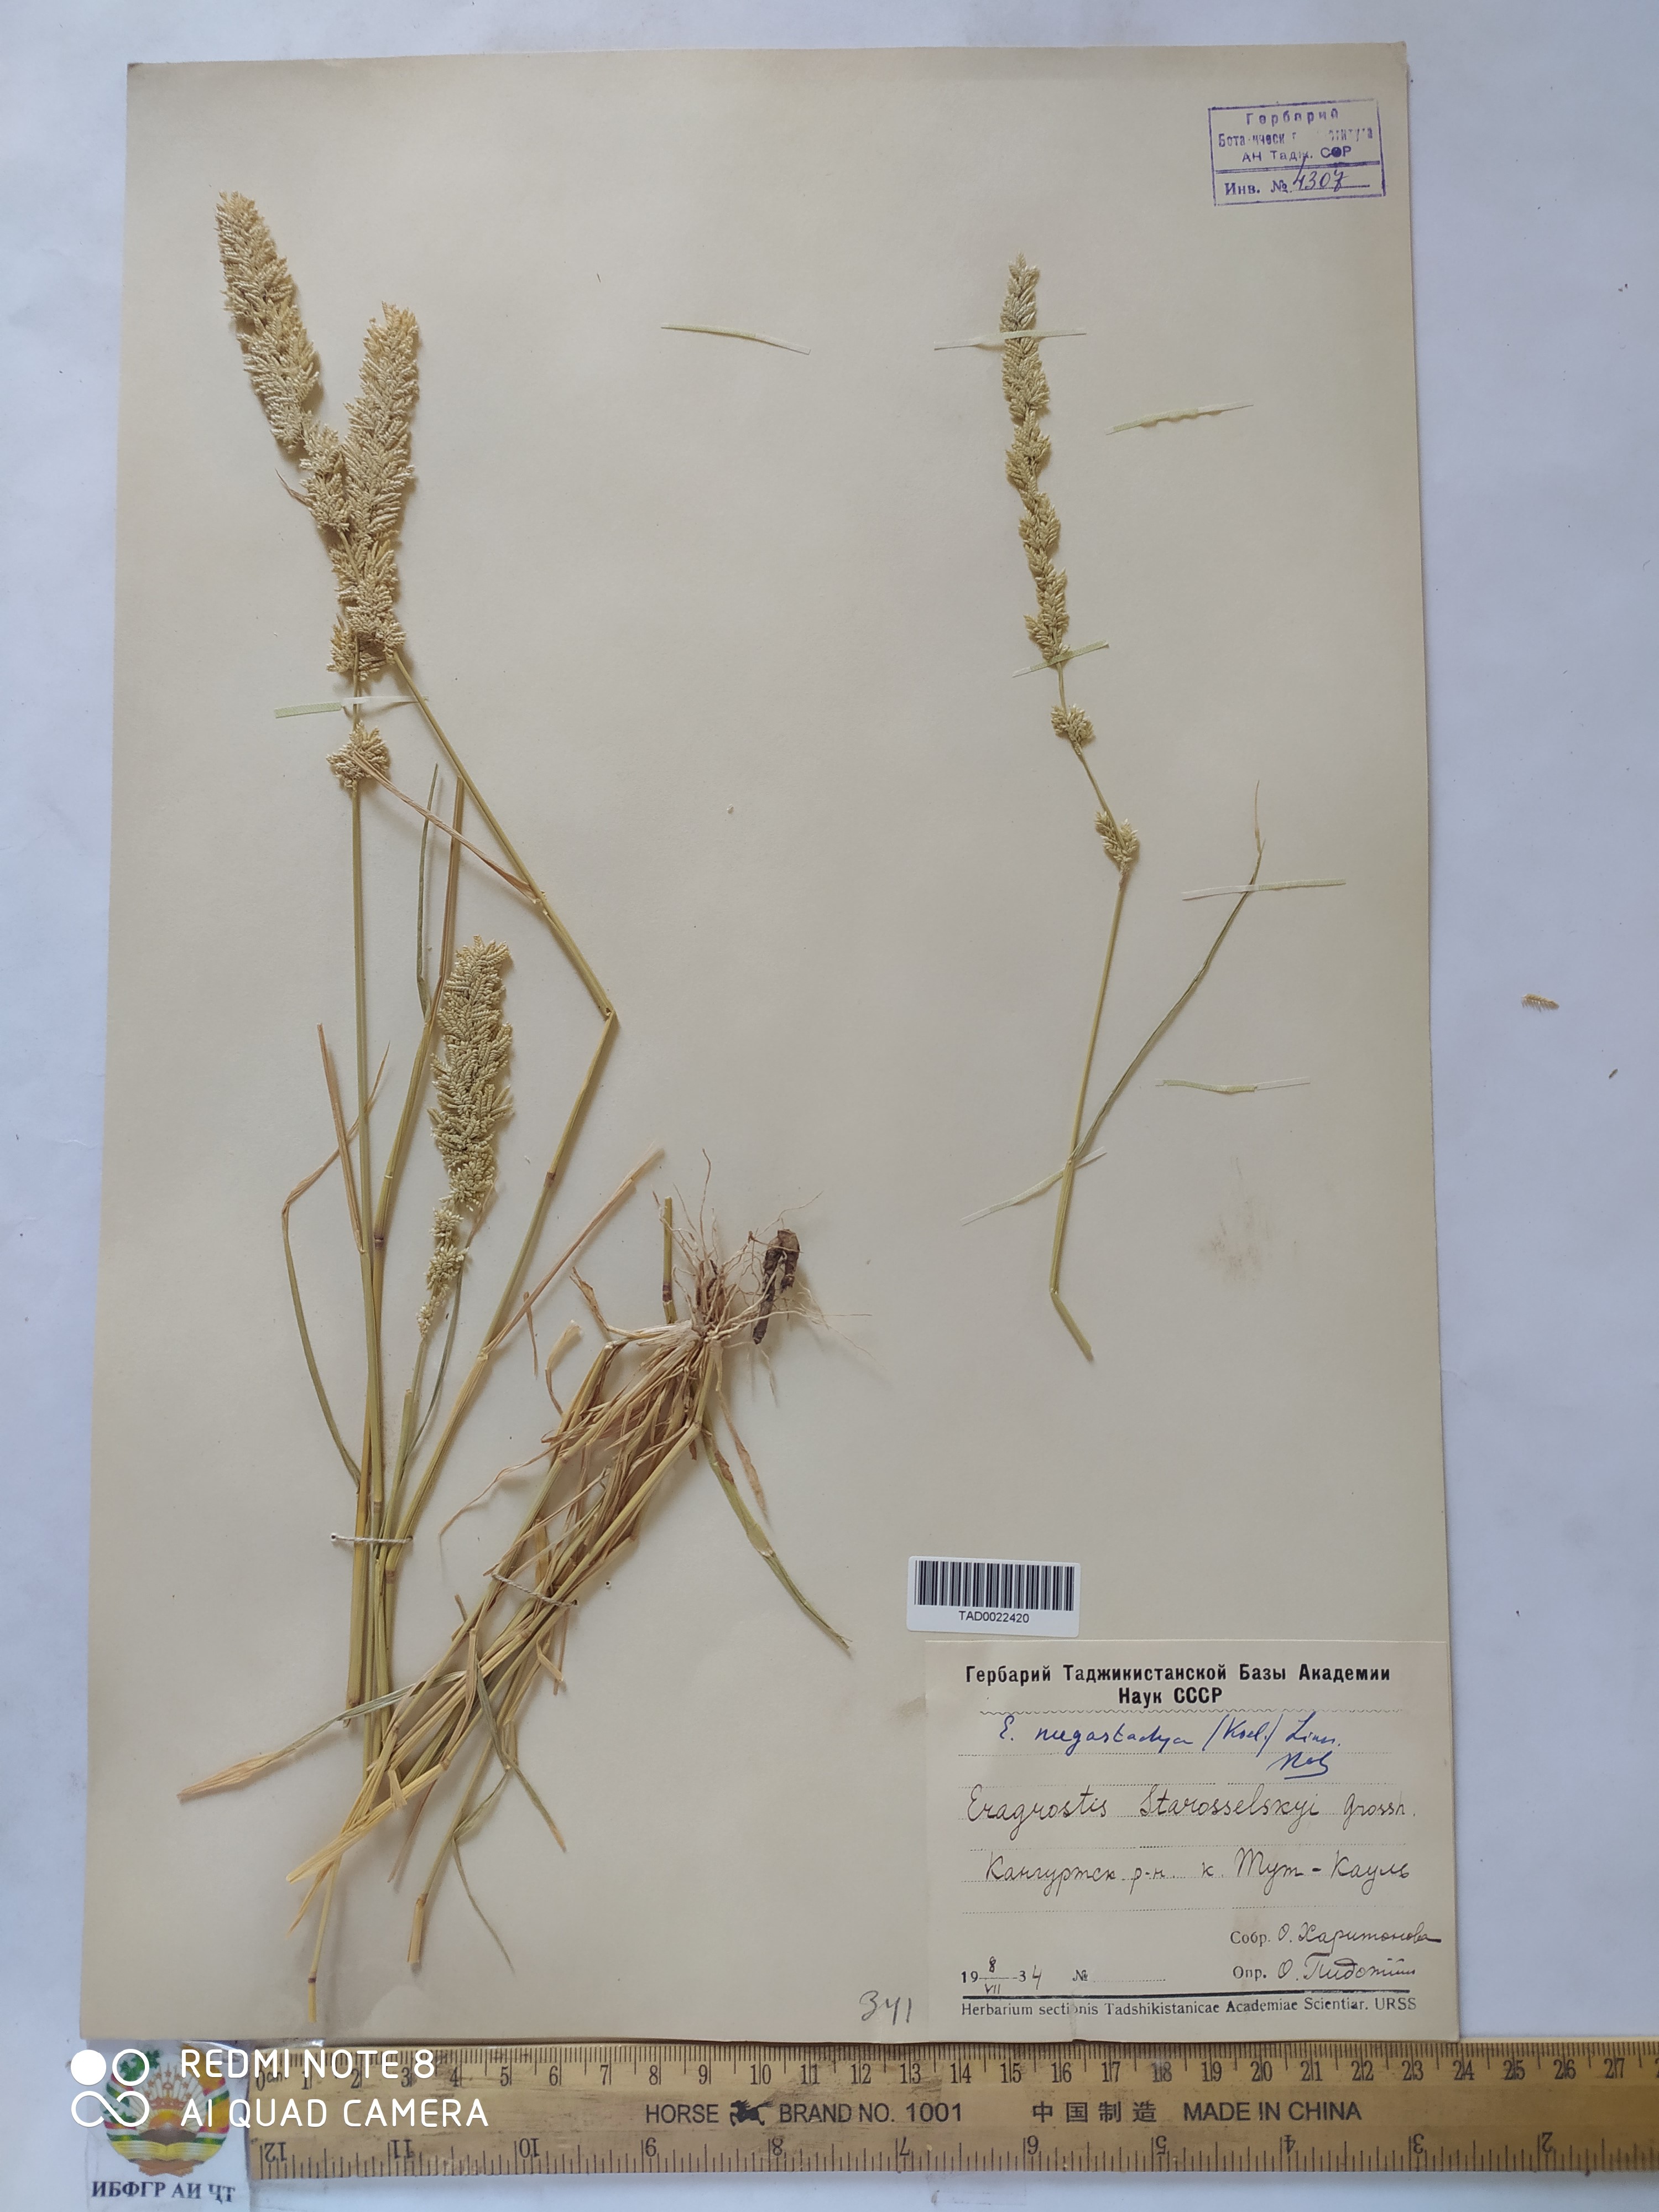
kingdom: Plantae
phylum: Tracheophyta
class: Liliopsida
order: Poales
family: Poaceae
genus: Eragrostis
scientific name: Eragrostis cilianensis
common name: Stinkgrass
